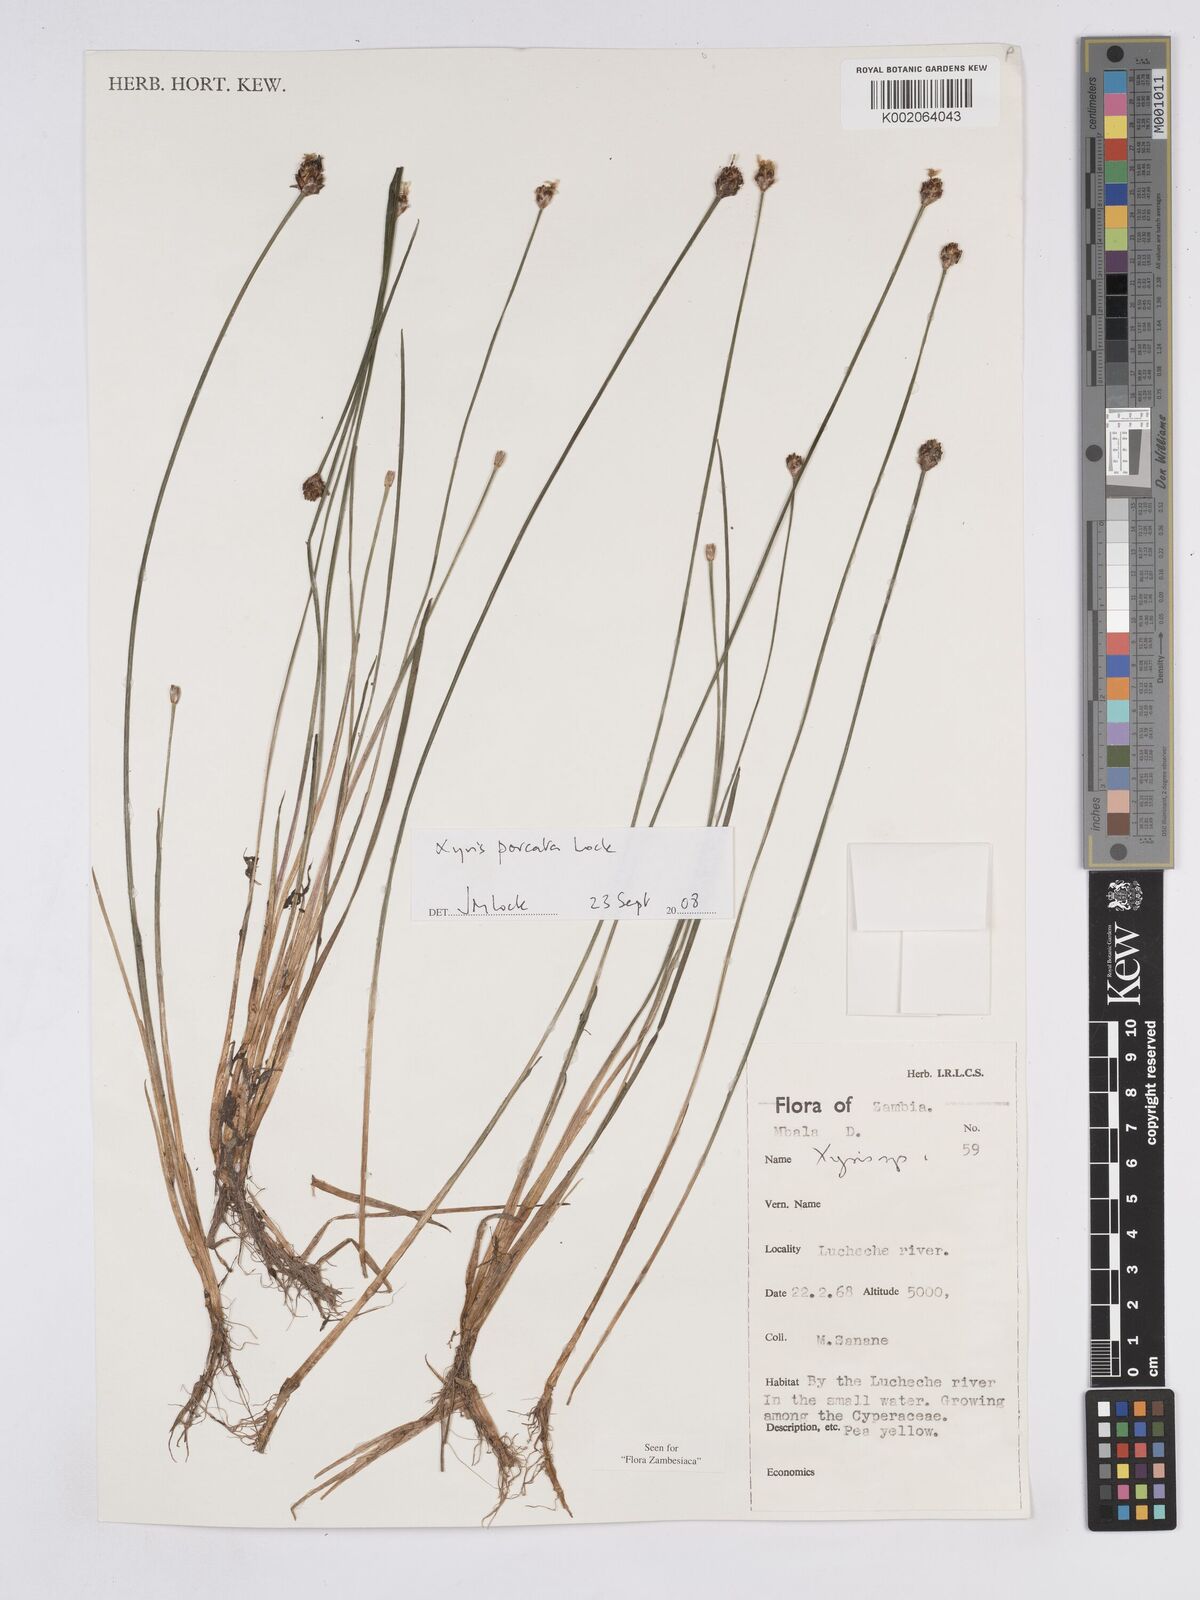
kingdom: Plantae
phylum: Tracheophyta
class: Liliopsida
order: Poales
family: Xyridaceae
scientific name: Xyridaceae
